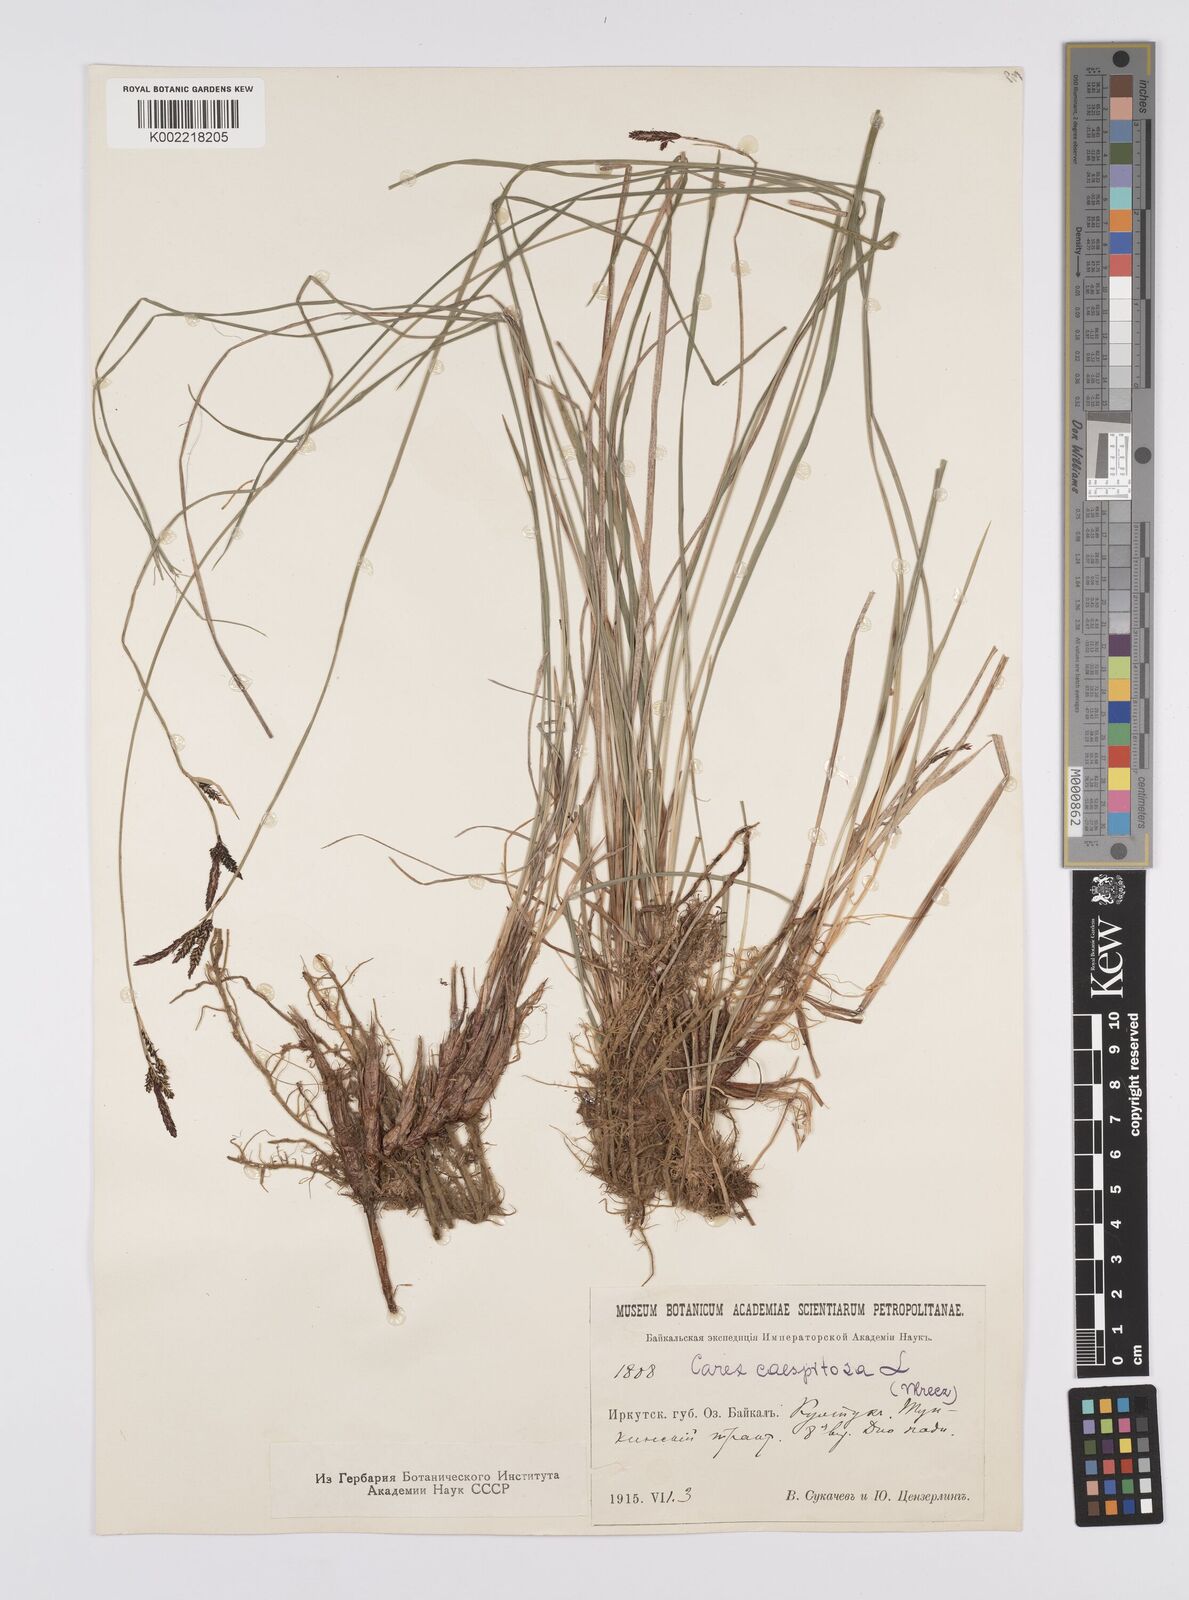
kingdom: Plantae
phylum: Tracheophyta
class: Liliopsida
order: Poales
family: Cyperaceae
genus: Carex
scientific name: Carex
